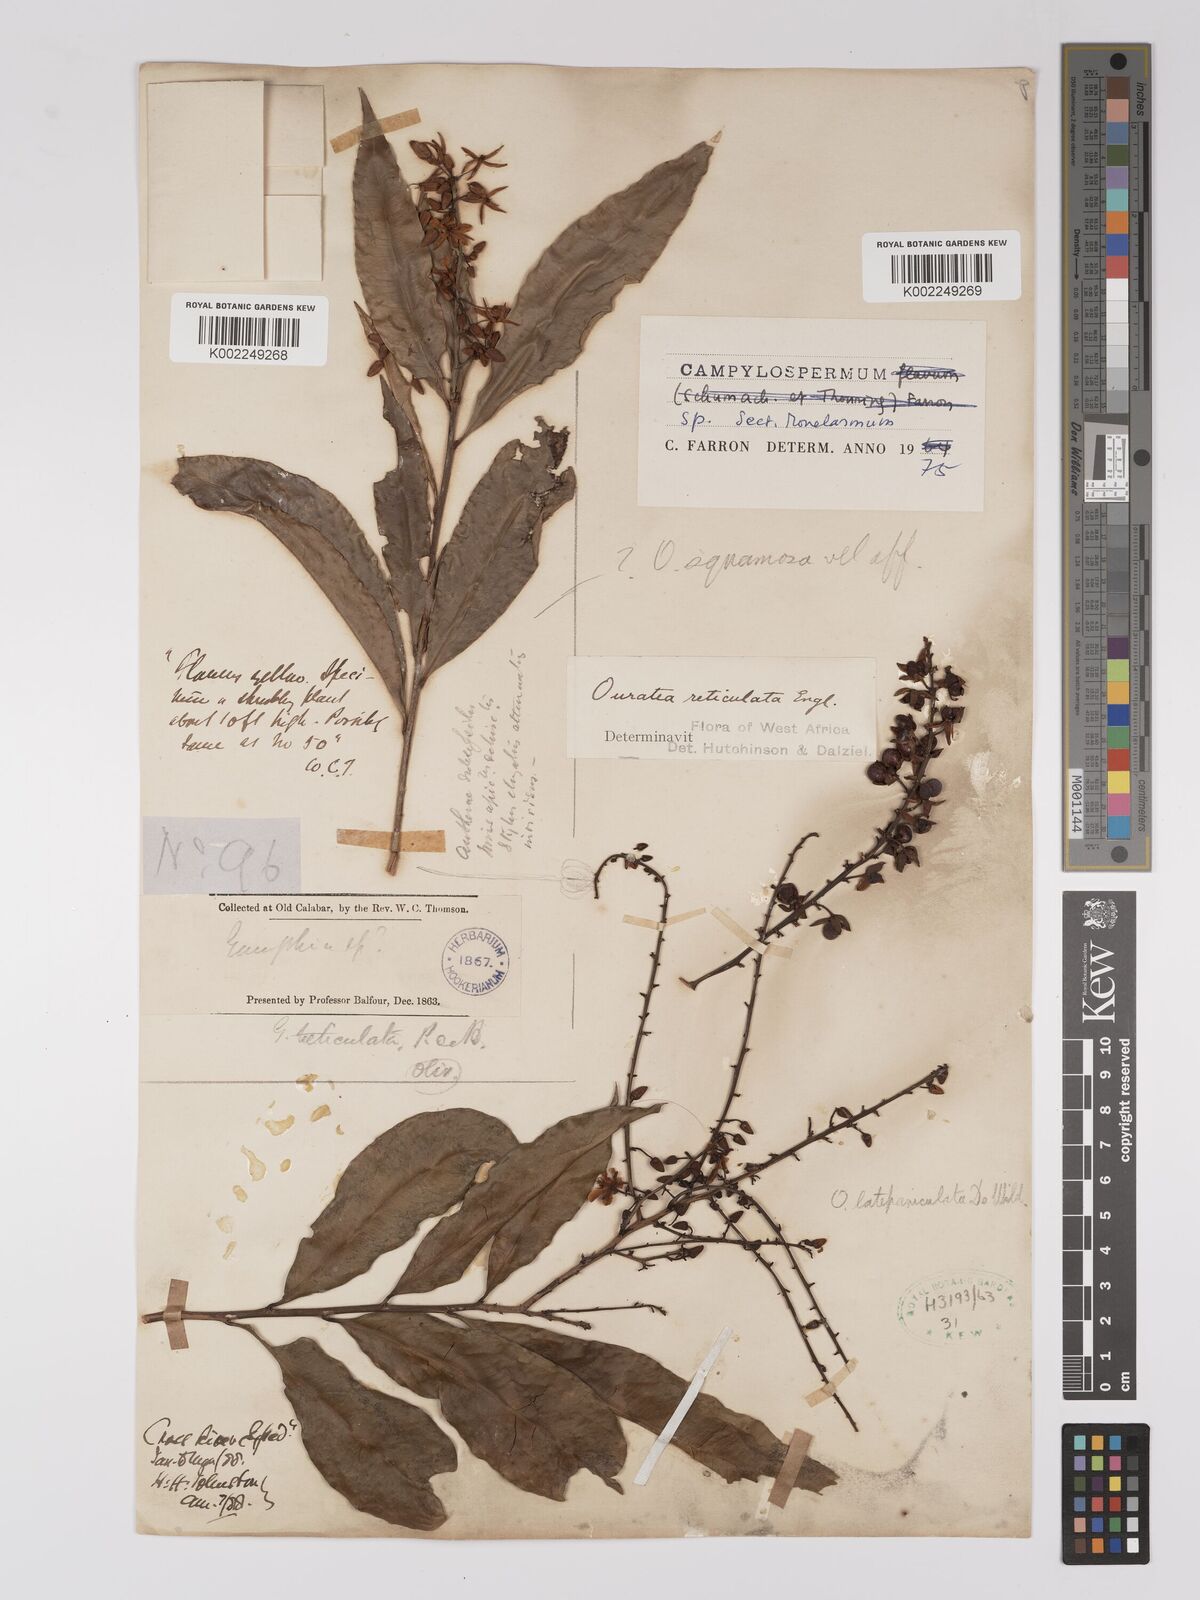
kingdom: Plantae
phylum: Tracheophyta
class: Magnoliopsida
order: Malpighiales
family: Ochnaceae
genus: Campylospermum
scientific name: Campylospermum
